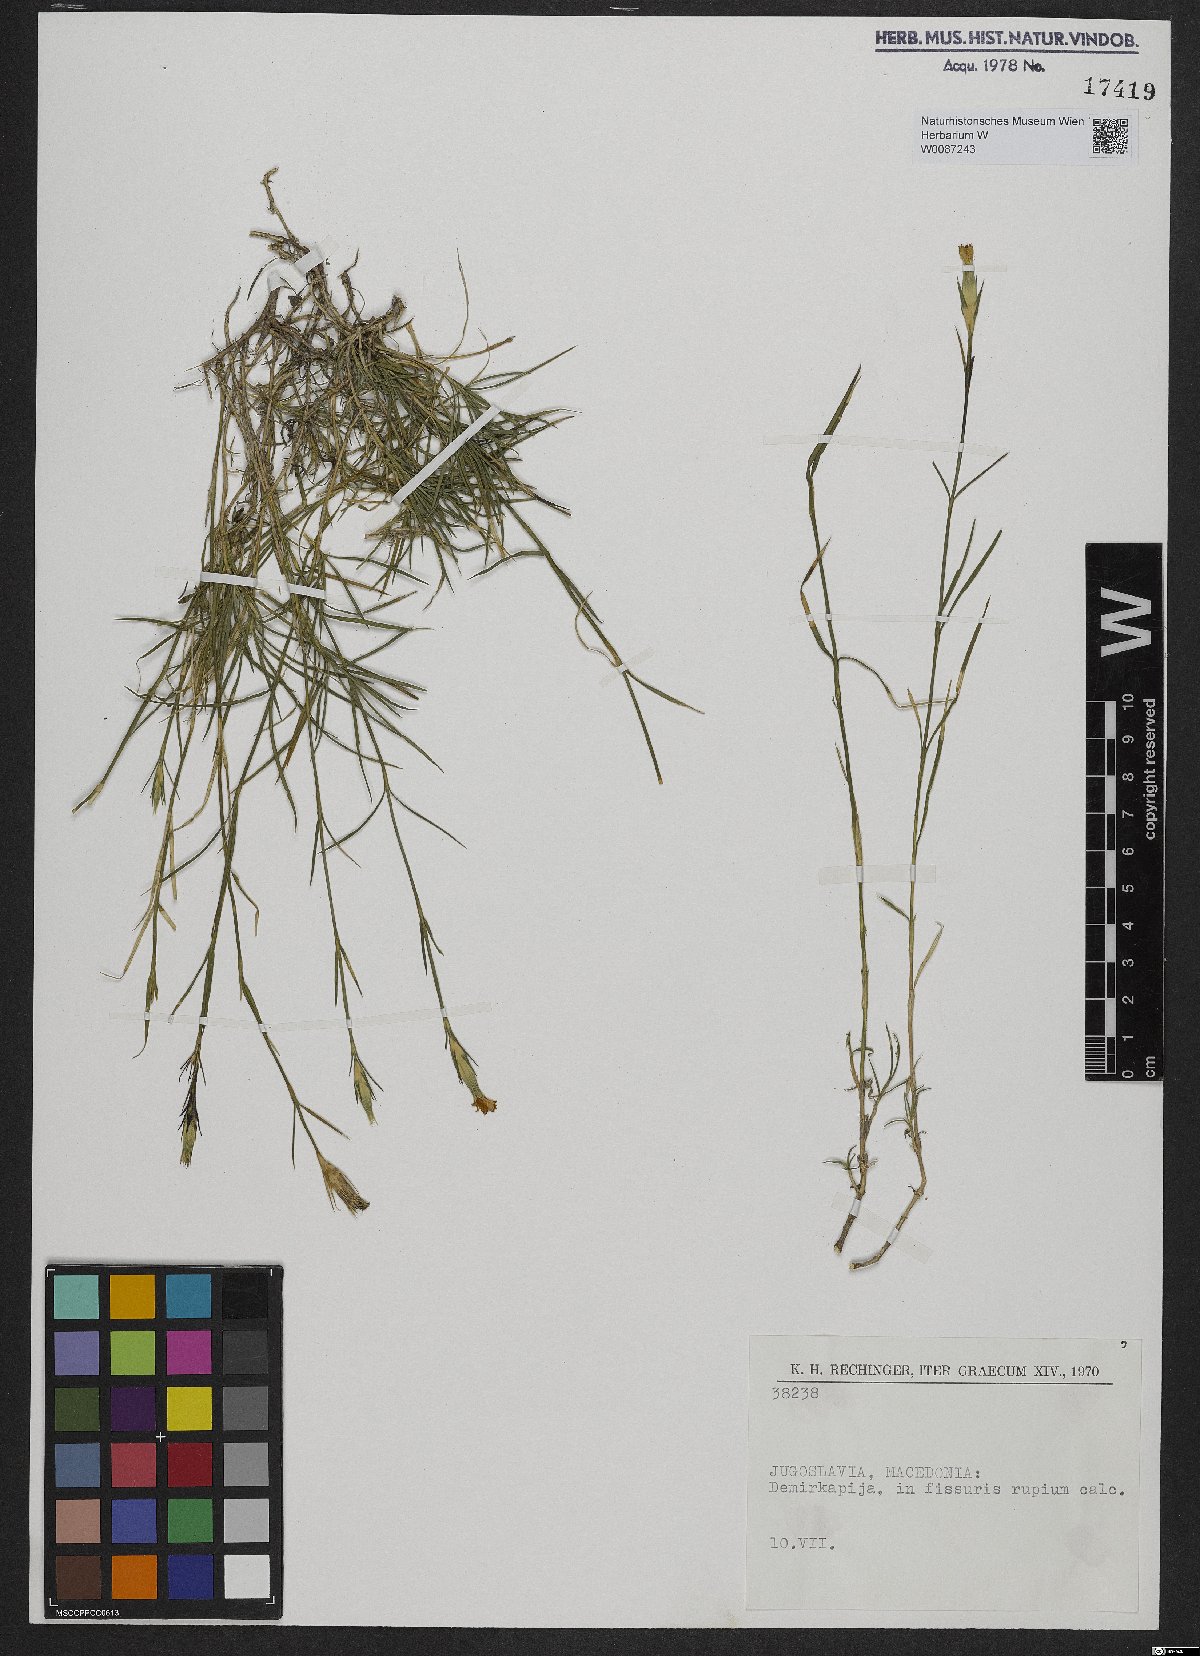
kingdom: Plantae
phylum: Tracheophyta
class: Magnoliopsida
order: Caryophyllales
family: Caryophyllaceae
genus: Dianthus
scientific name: Dianthus
